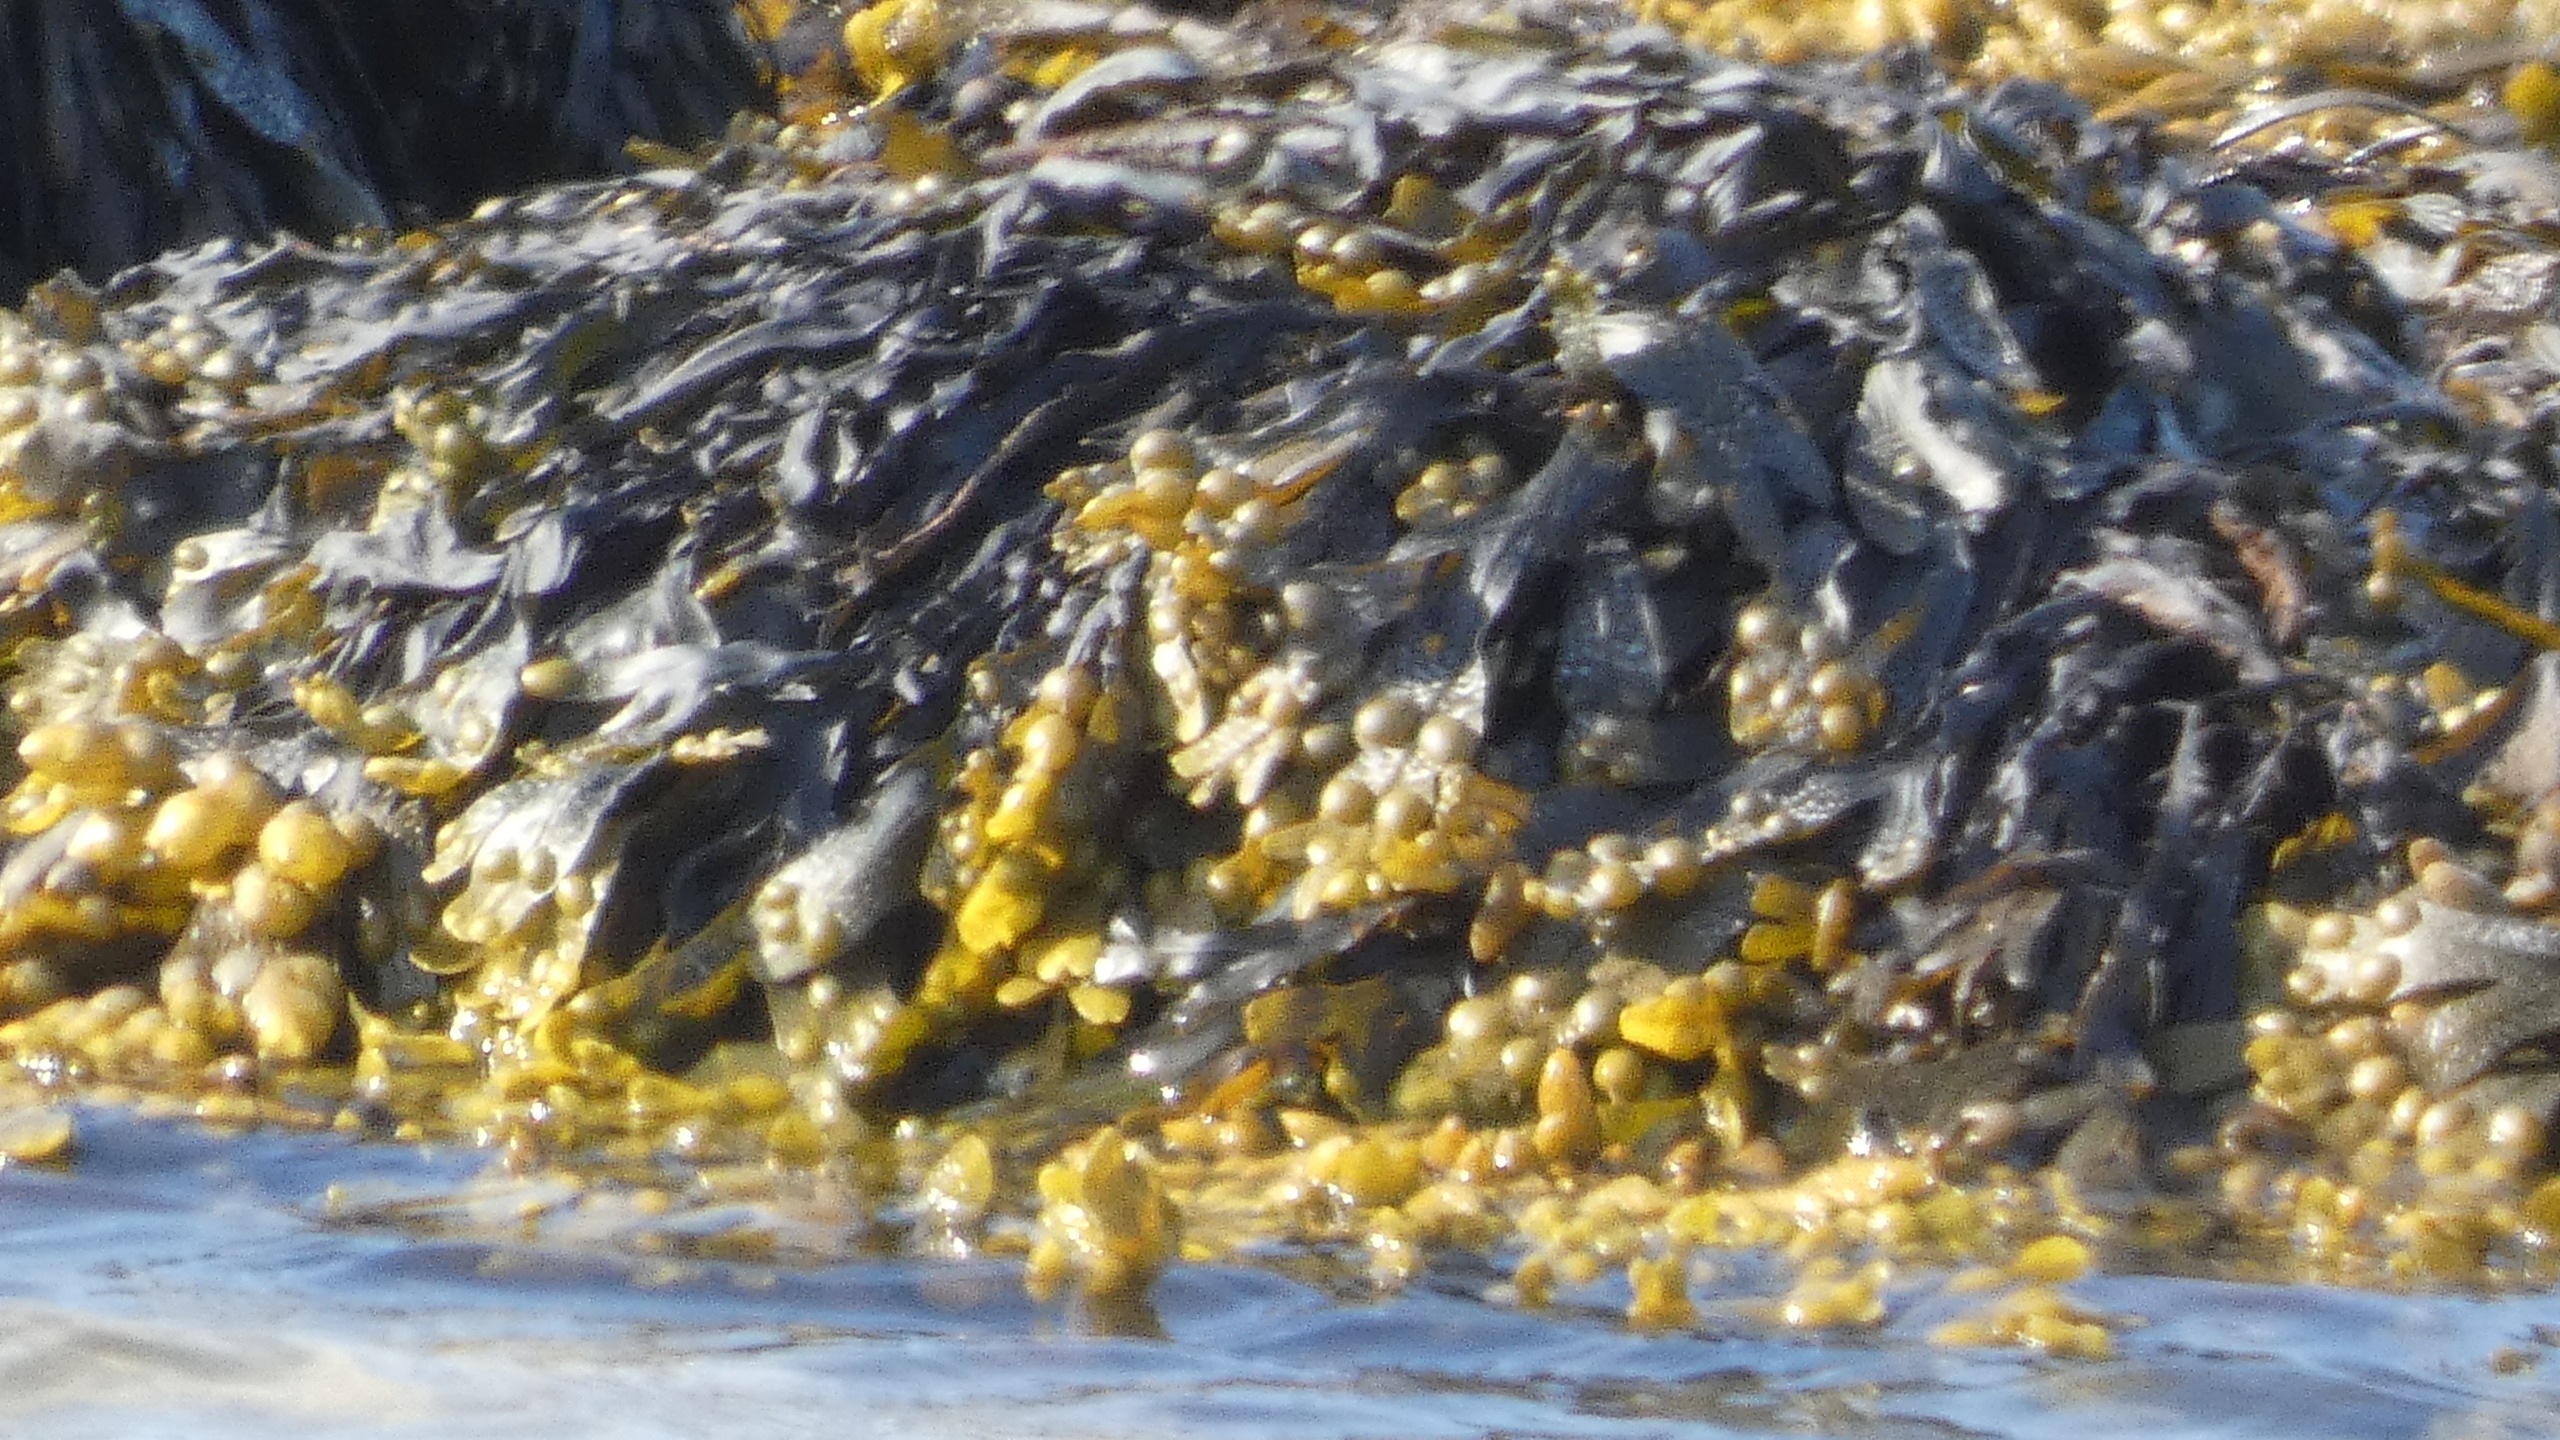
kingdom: Chromista
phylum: Ochrophyta
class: Phaeophyceae
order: Fucales
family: Fucaceae
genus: Fucus
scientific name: Fucus vesiculosus
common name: Blæretang
